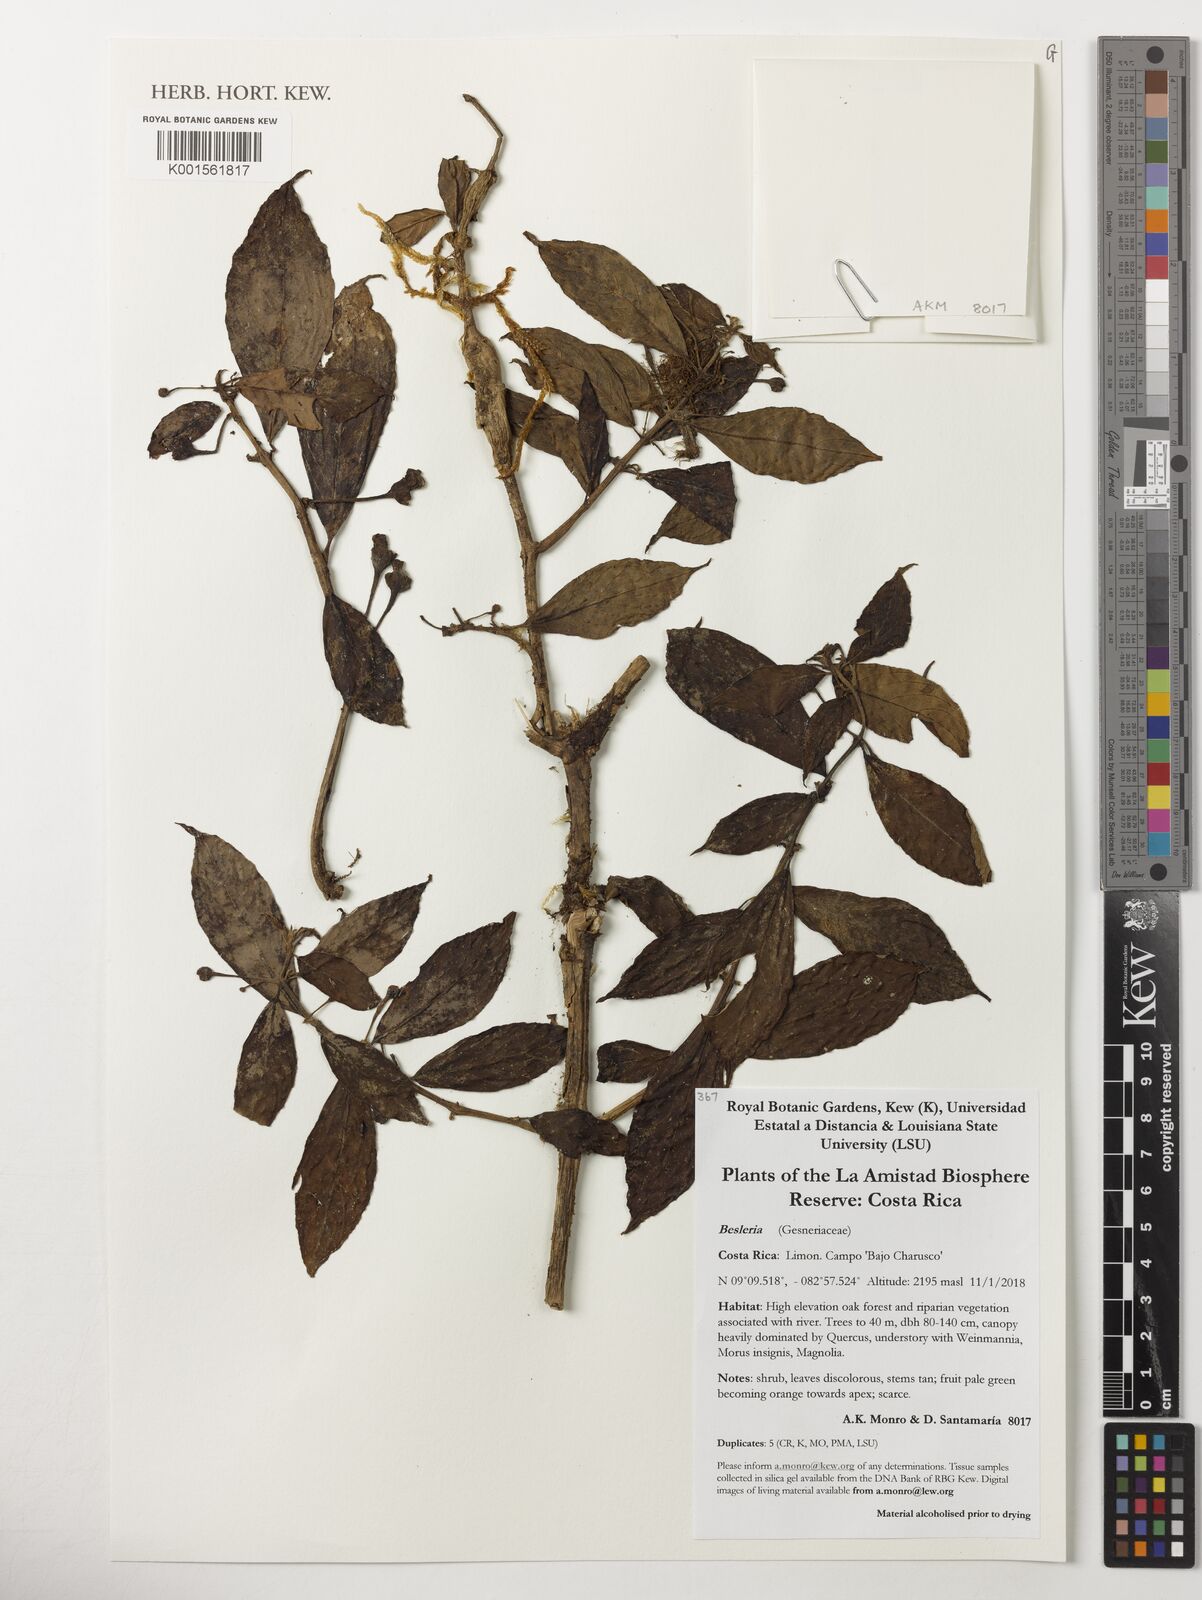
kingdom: Plantae
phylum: Tracheophyta
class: Magnoliopsida
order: Lamiales
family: Gesneriaceae
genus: Besleria
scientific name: Besleria
